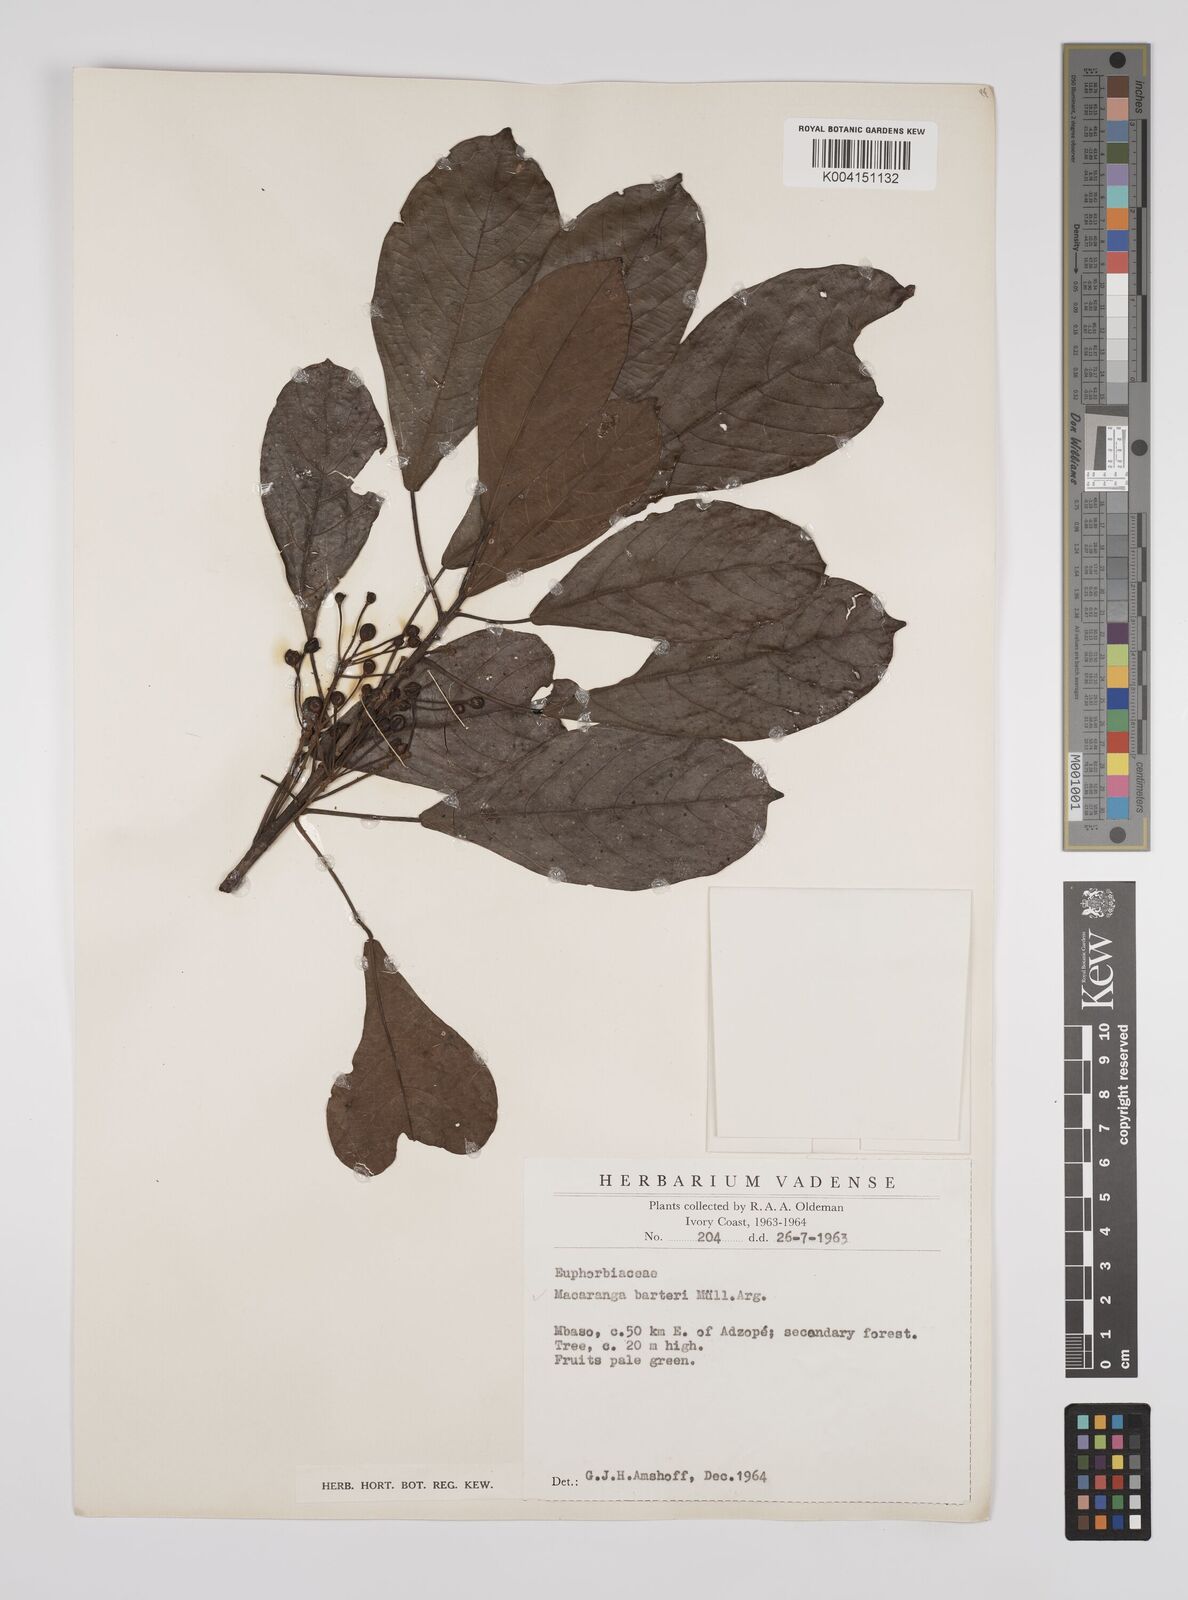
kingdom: Plantae
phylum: Tracheophyta
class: Magnoliopsida
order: Malpighiales
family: Euphorbiaceae
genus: Macaranga
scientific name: Macaranga barteri
